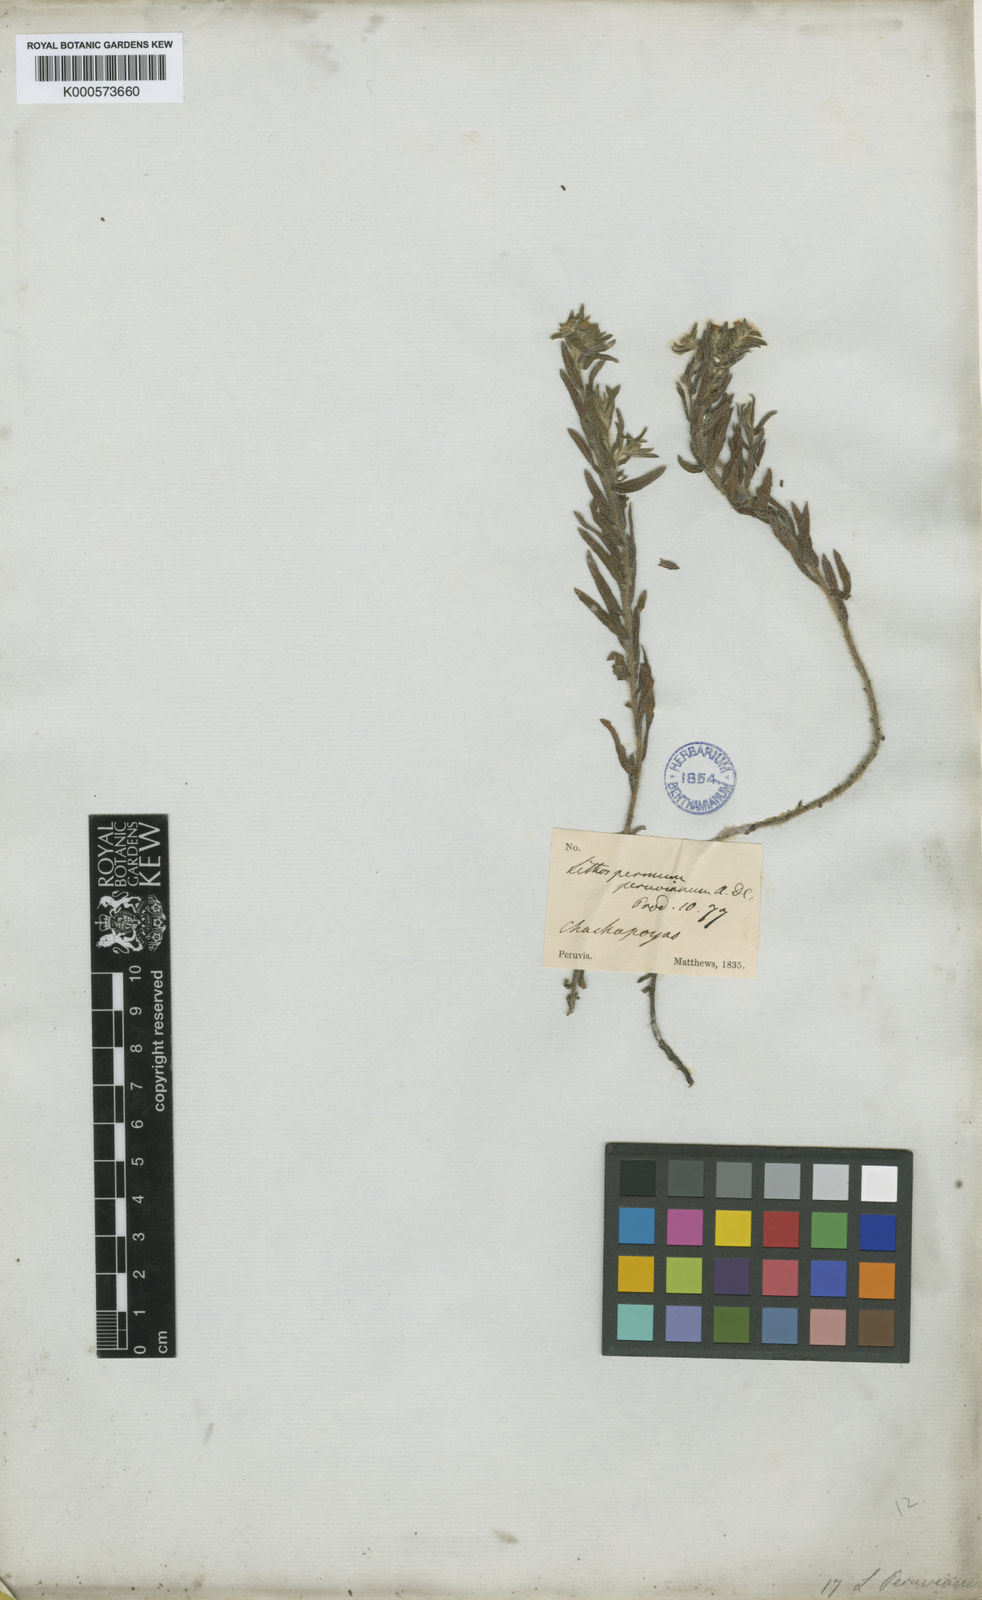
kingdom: Plantae
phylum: Tracheophyta
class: Magnoliopsida
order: Boraginales
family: Boraginaceae
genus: Lithospermum
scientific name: Lithospermum peruvianum
